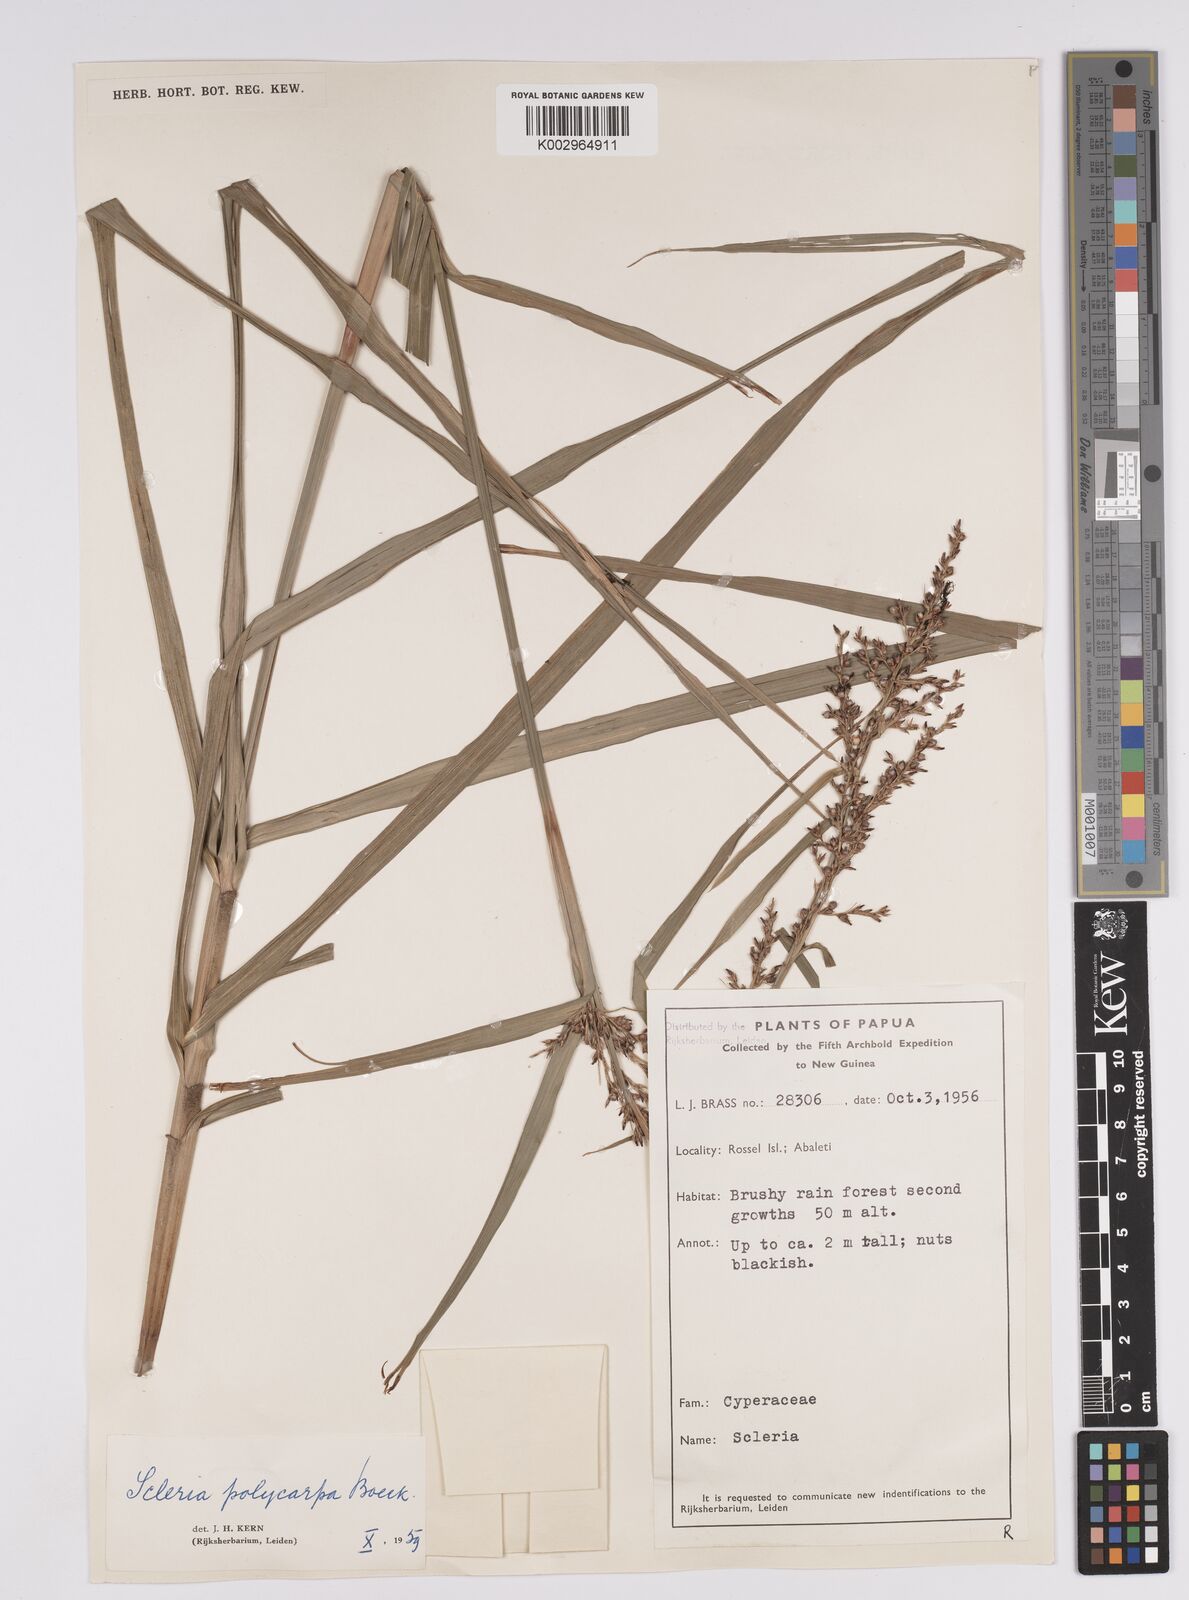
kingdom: Plantae
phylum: Tracheophyta
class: Liliopsida
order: Poales
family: Cyperaceae
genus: Scleria
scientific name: Scleria polycarpa
